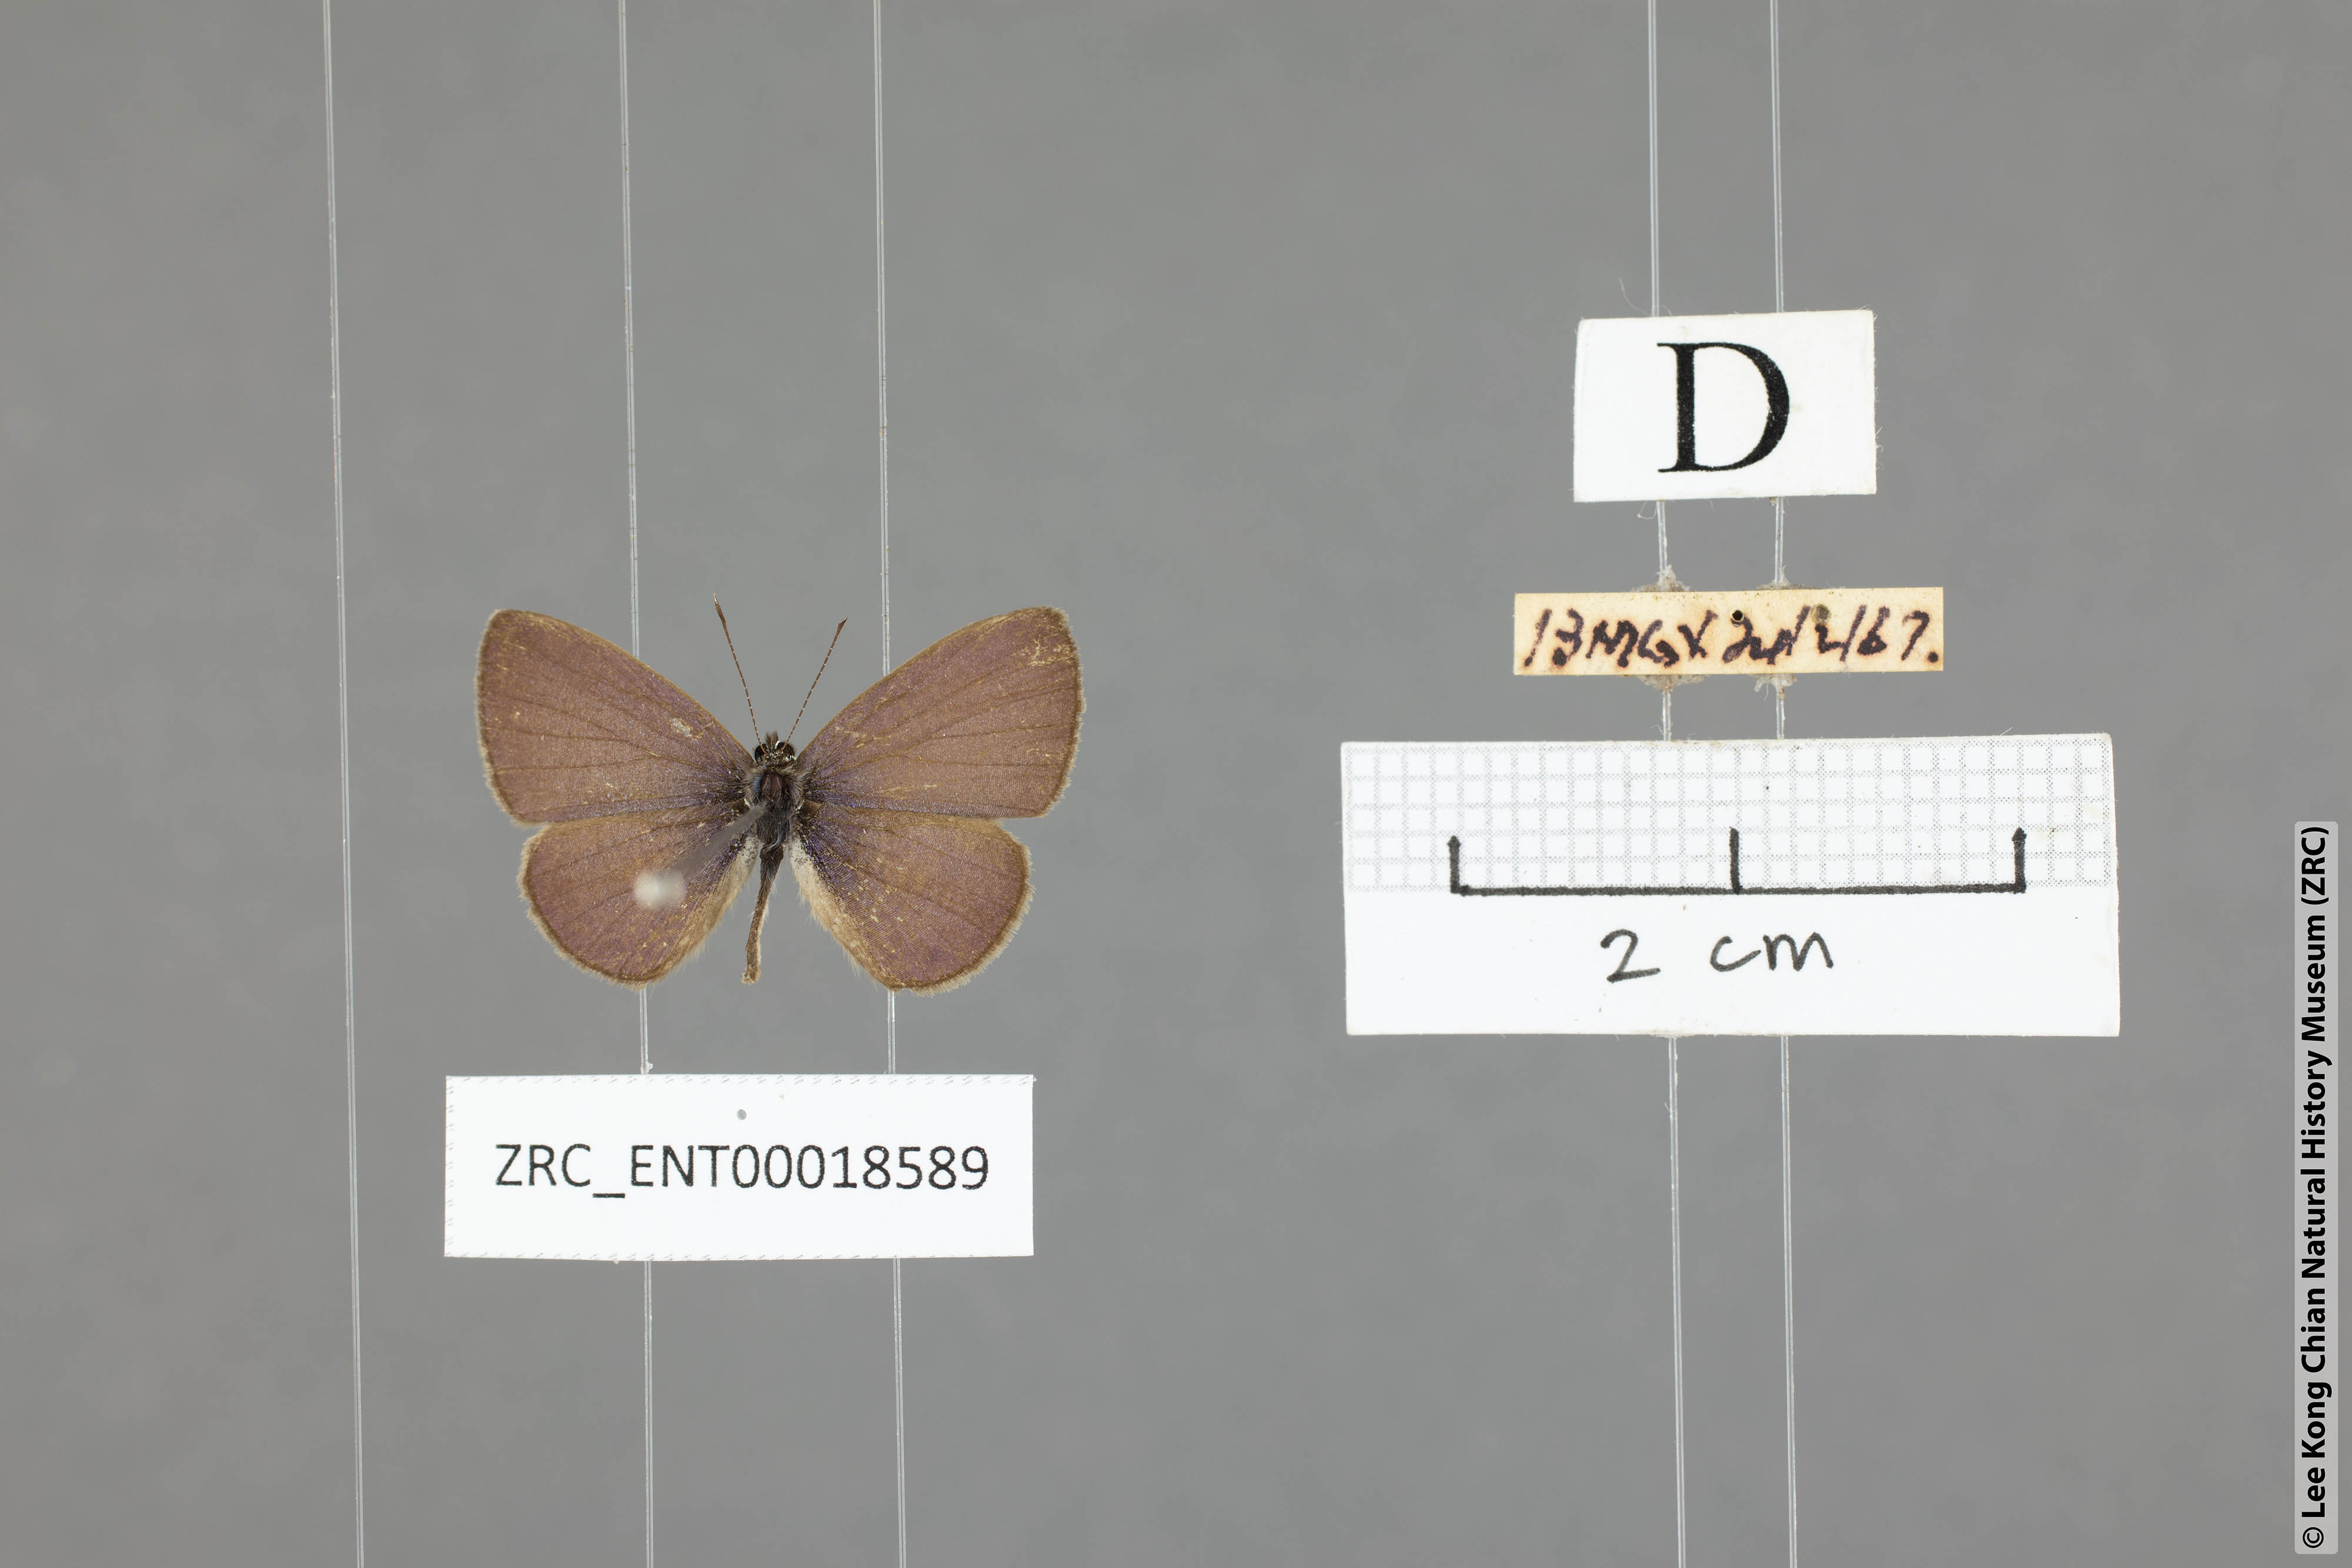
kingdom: Animalia
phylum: Arthropoda
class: Insecta
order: Lepidoptera
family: Lycaenidae
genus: Prosotas
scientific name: Prosotas dubiosa
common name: Tailless lineblue
